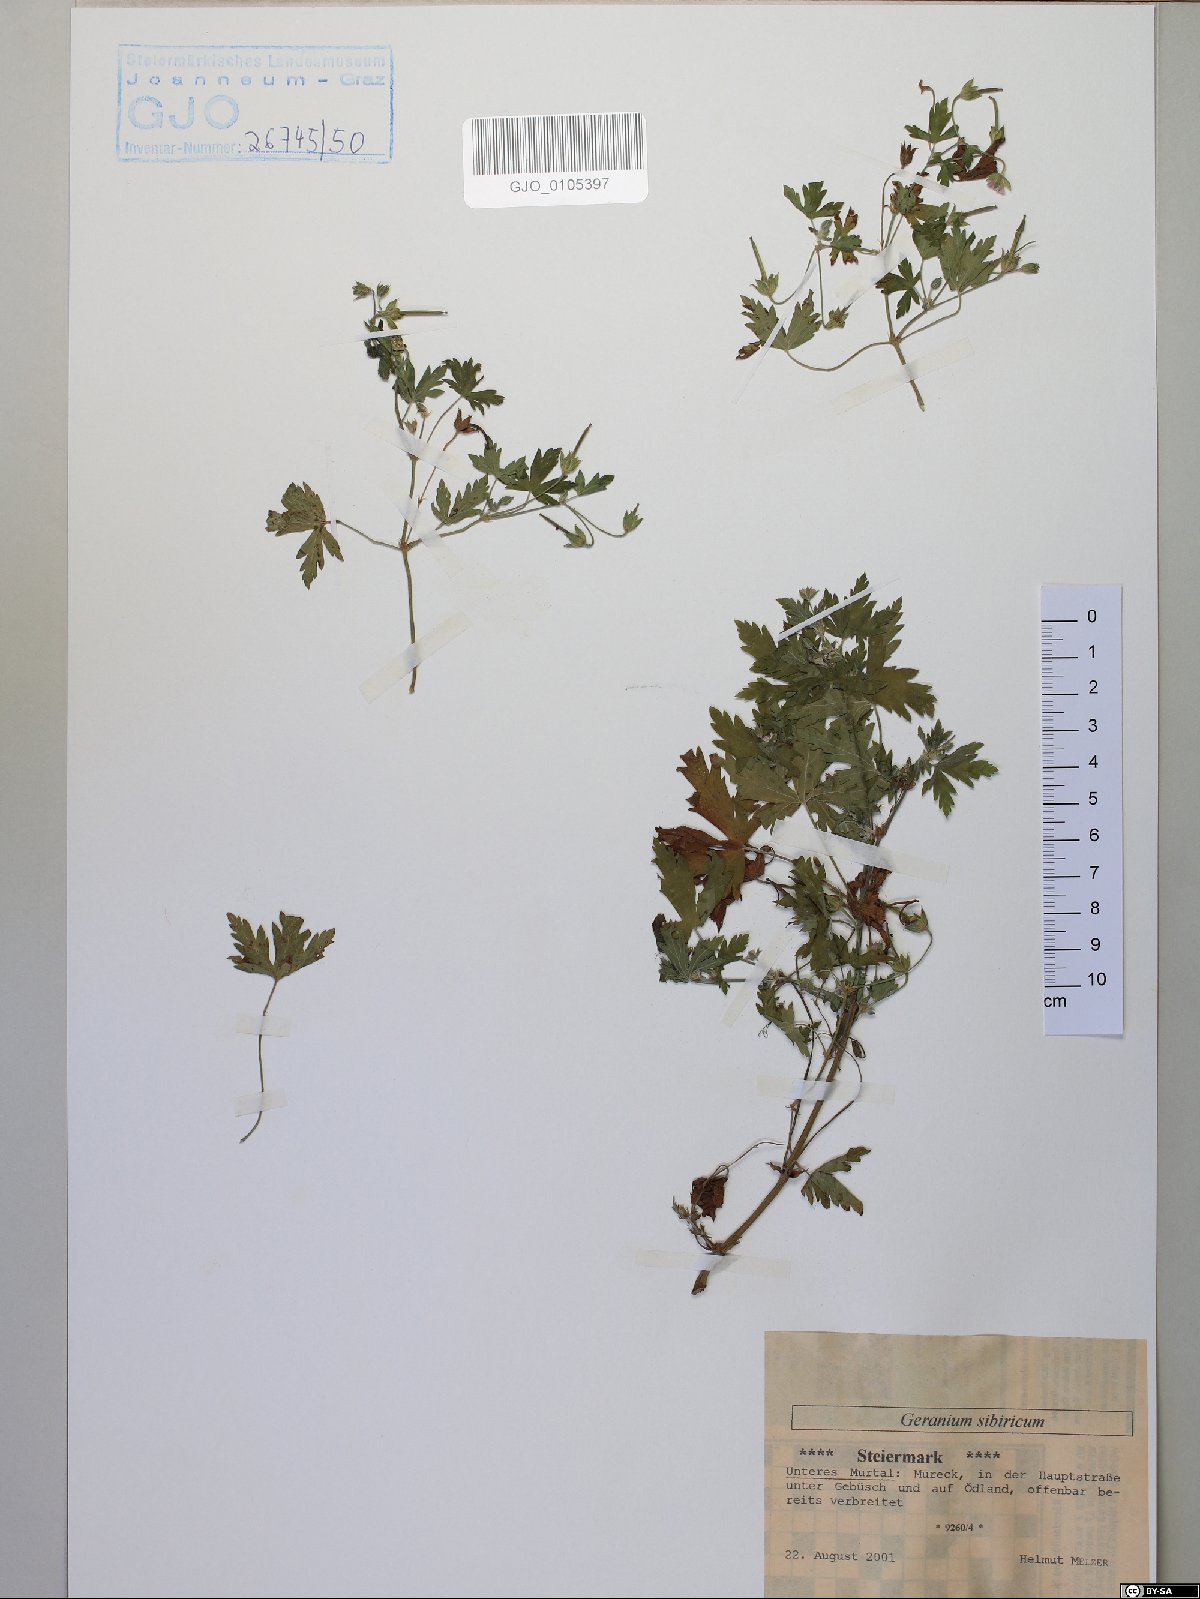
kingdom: Plantae
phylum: Tracheophyta
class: Magnoliopsida
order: Geraniales
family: Geraniaceae
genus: Geranium
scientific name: Geranium sibiricum
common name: Siberian crane's-bill
